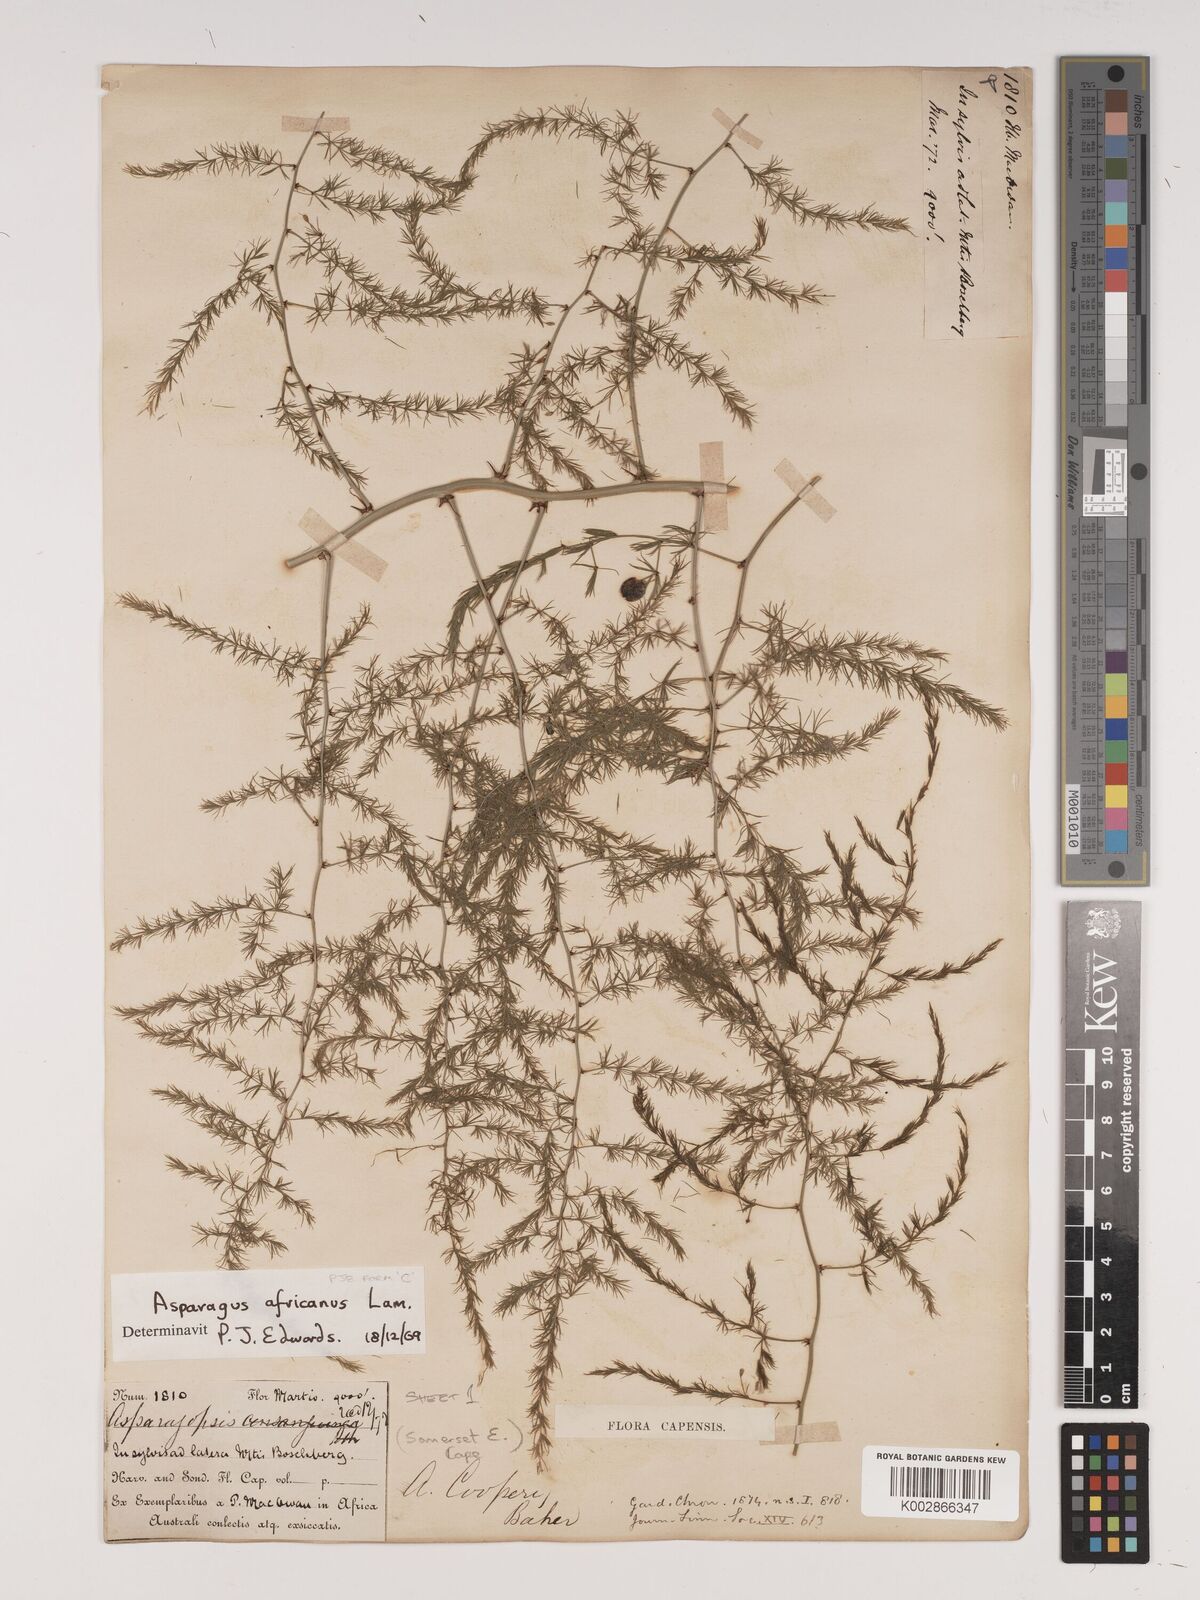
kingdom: Plantae
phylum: Tracheophyta
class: Liliopsida
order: Asparagales
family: Asparagaceae
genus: Asparagus
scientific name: Asparagus africanus
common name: Asparagus-fern
